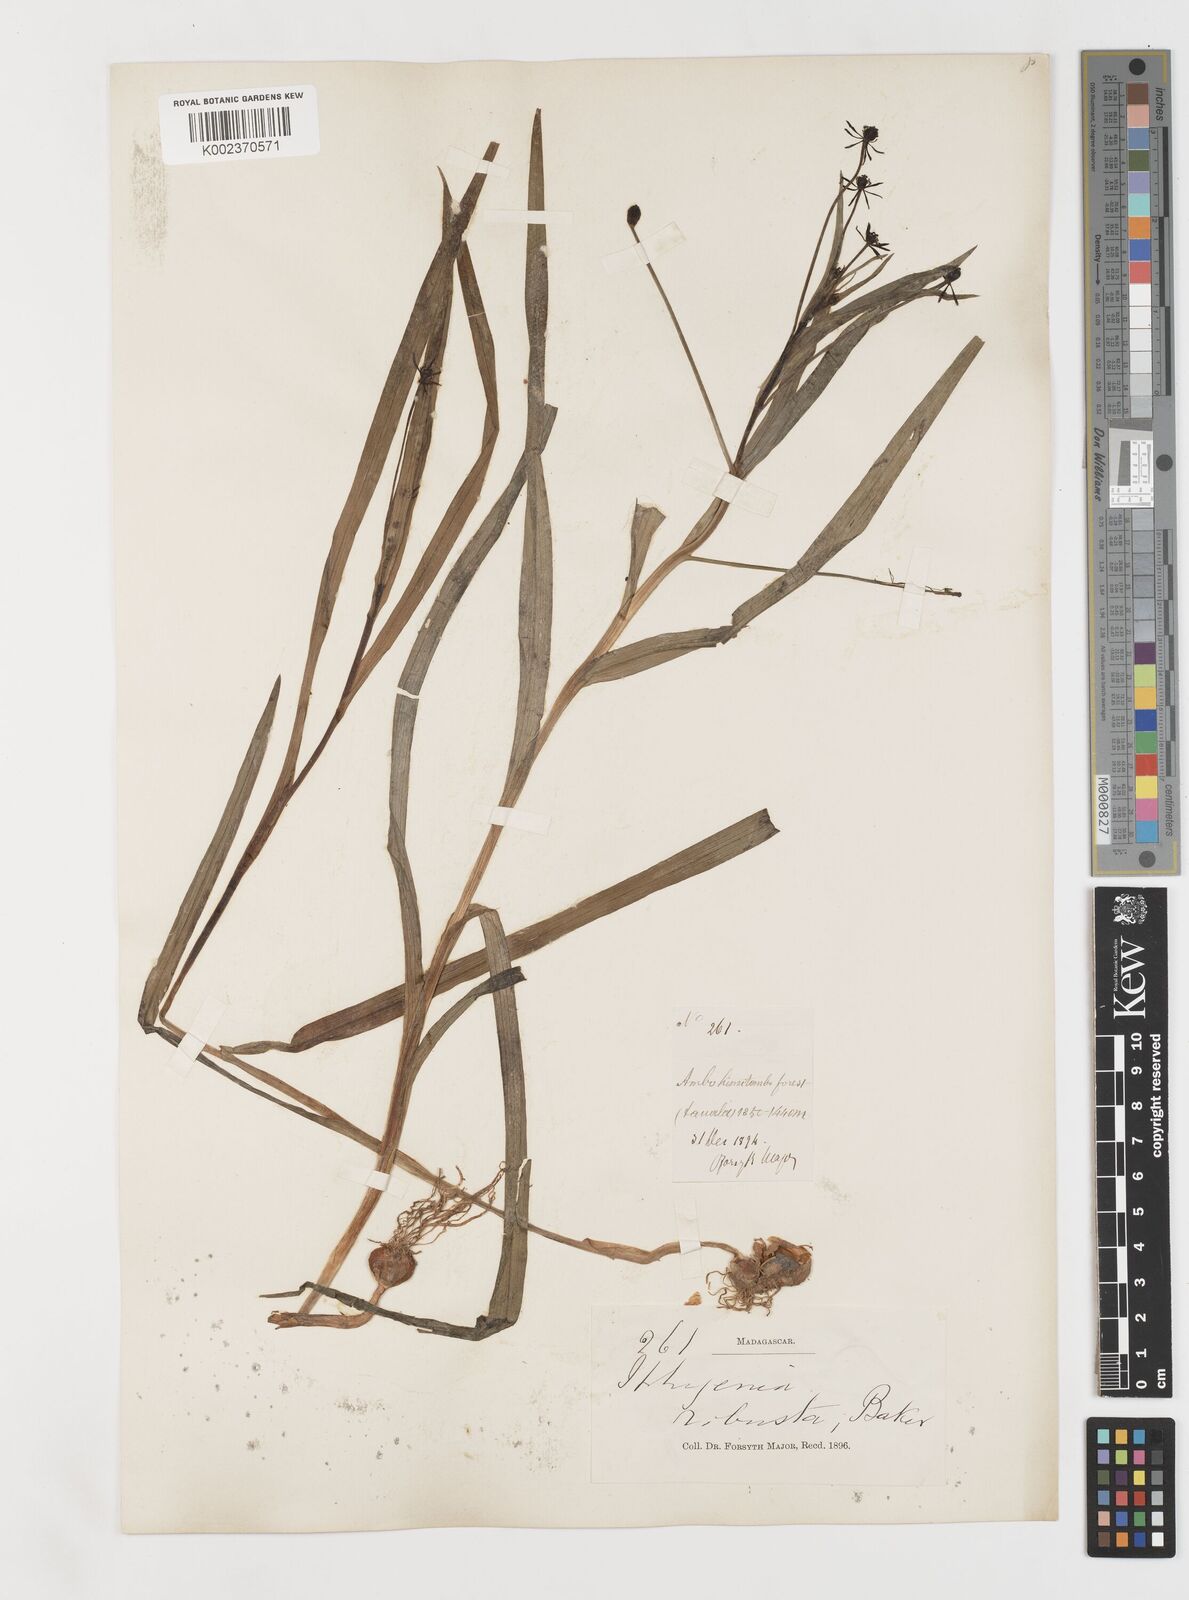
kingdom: Plantae
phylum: Tracheophyta
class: Liliopsida
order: Liliales
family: Colchicaceae
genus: Iphigenia
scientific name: Iphigenia robusta
